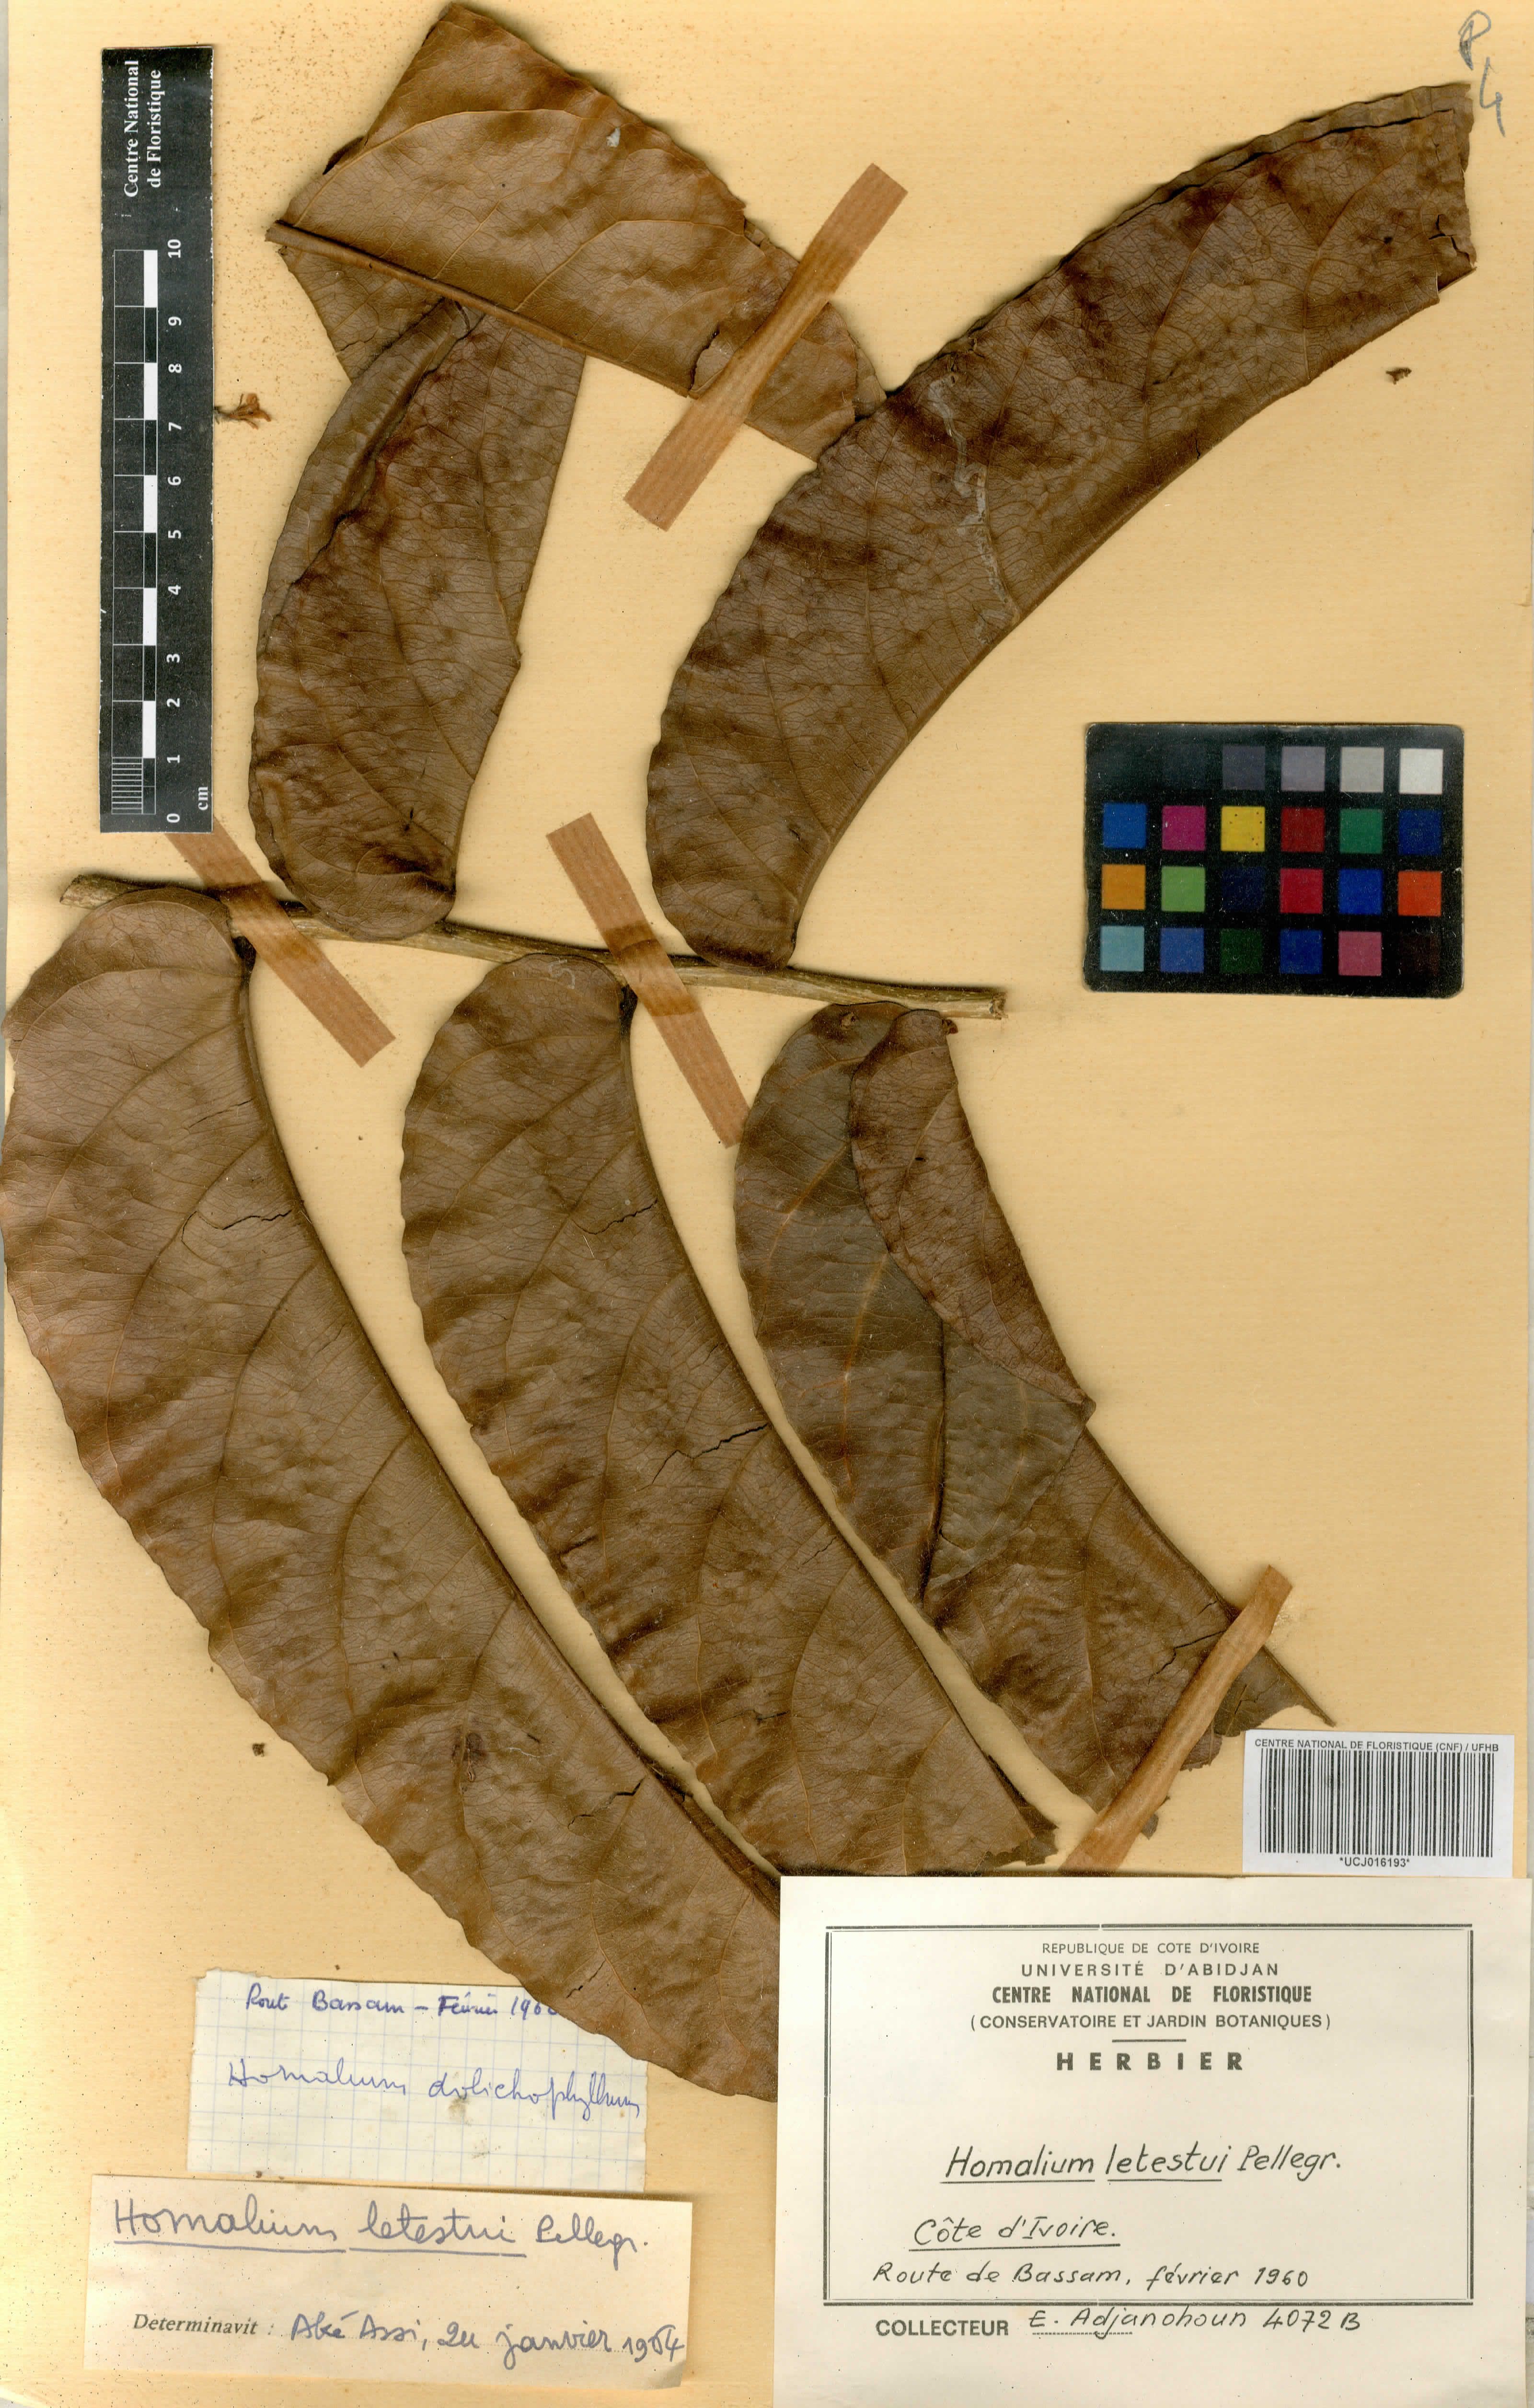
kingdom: Plantae
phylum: Tracheophyta
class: Magnoliopsida
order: Malpighiales
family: Salicaceae
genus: Homalium
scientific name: Homalium letestui
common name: African homalium
